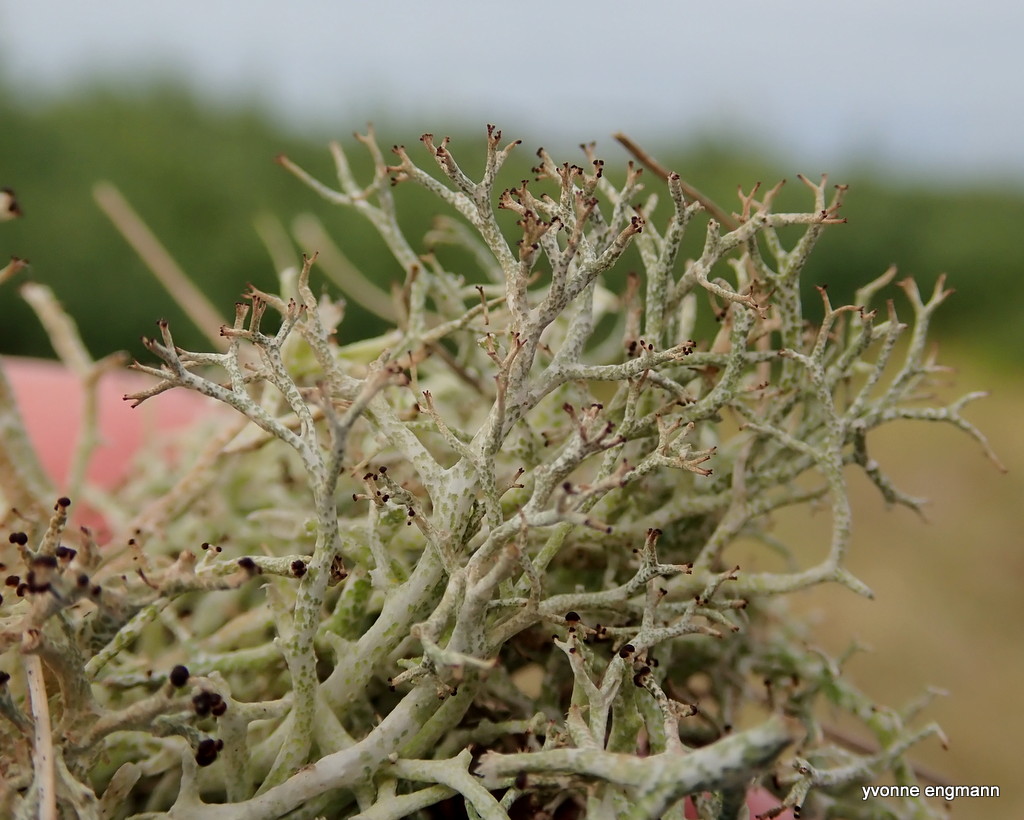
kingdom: Fungi
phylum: Ascomycota
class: Lecanoromycetes
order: Lecanorales
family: Cladoniaceae
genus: Cladonia
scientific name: Cladonia rangiformis
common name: spættet bægerlav
